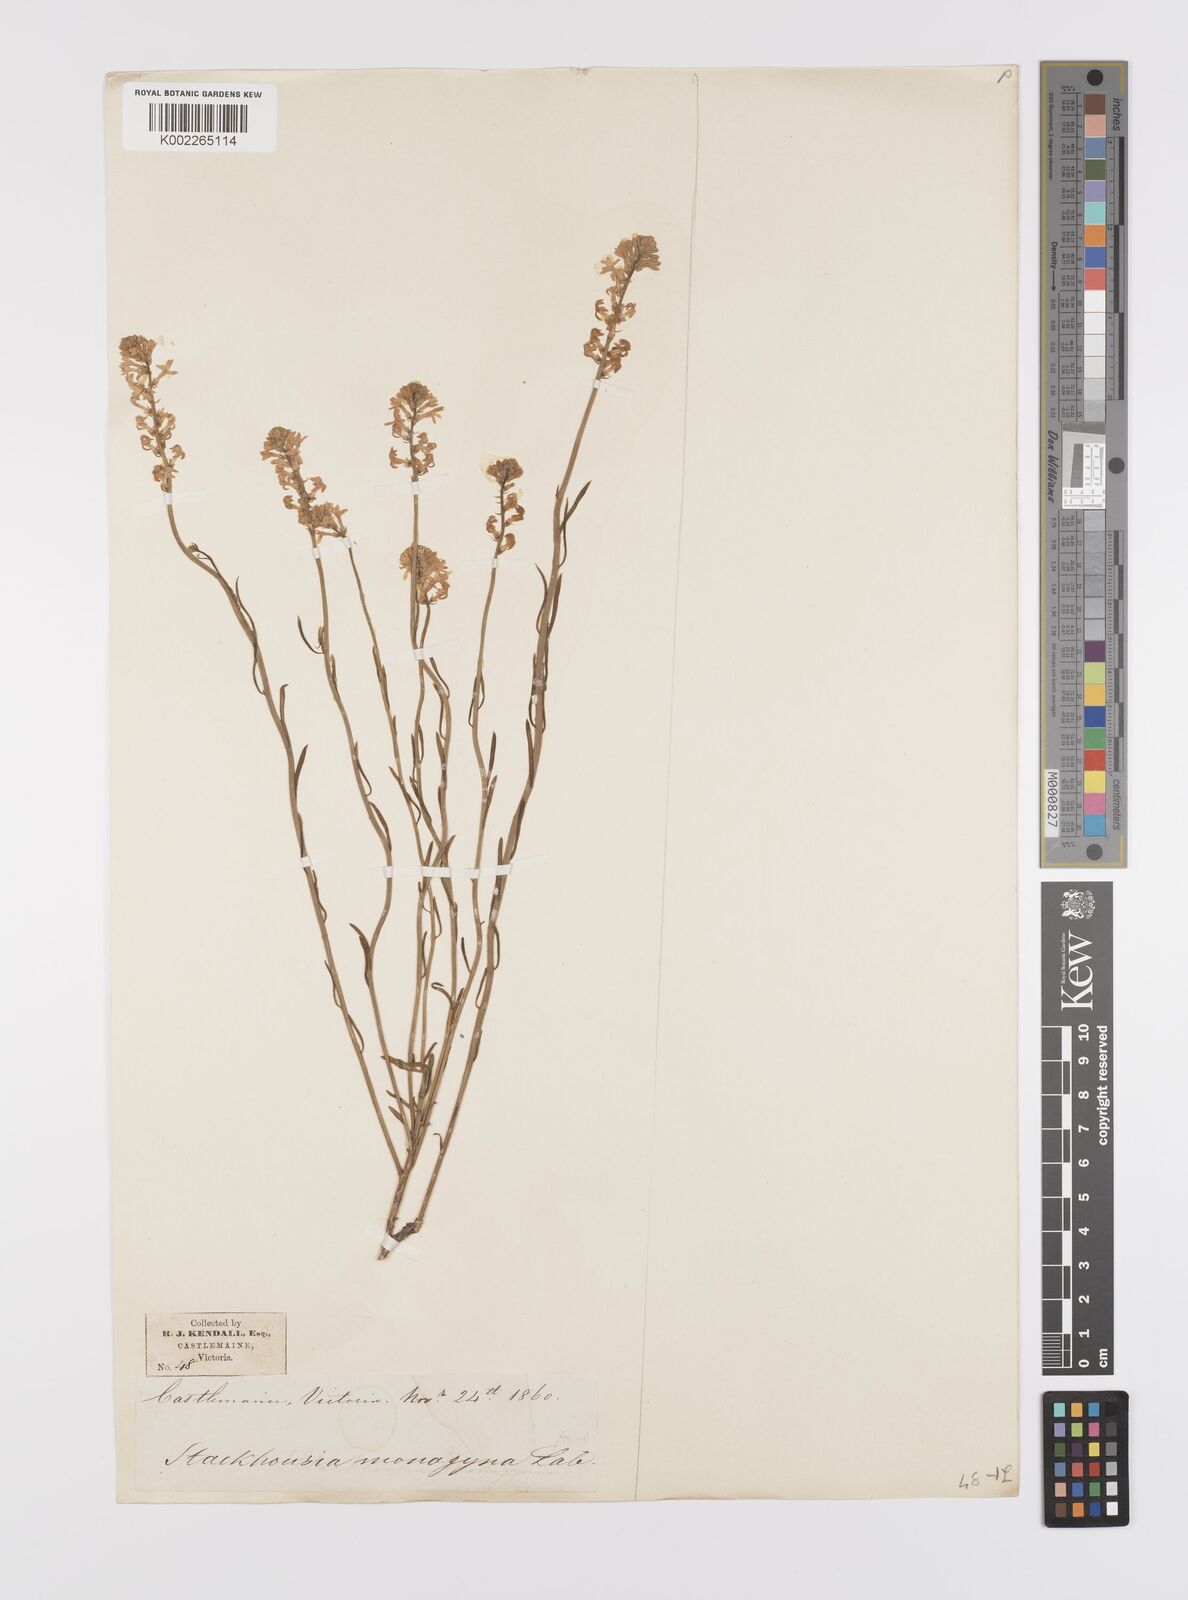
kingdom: Plantae
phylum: Tracheophyta
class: Magnoliopsida
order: Celastrales
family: Celastraceae
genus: Stackhousia
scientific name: Stackhousia monogyna
